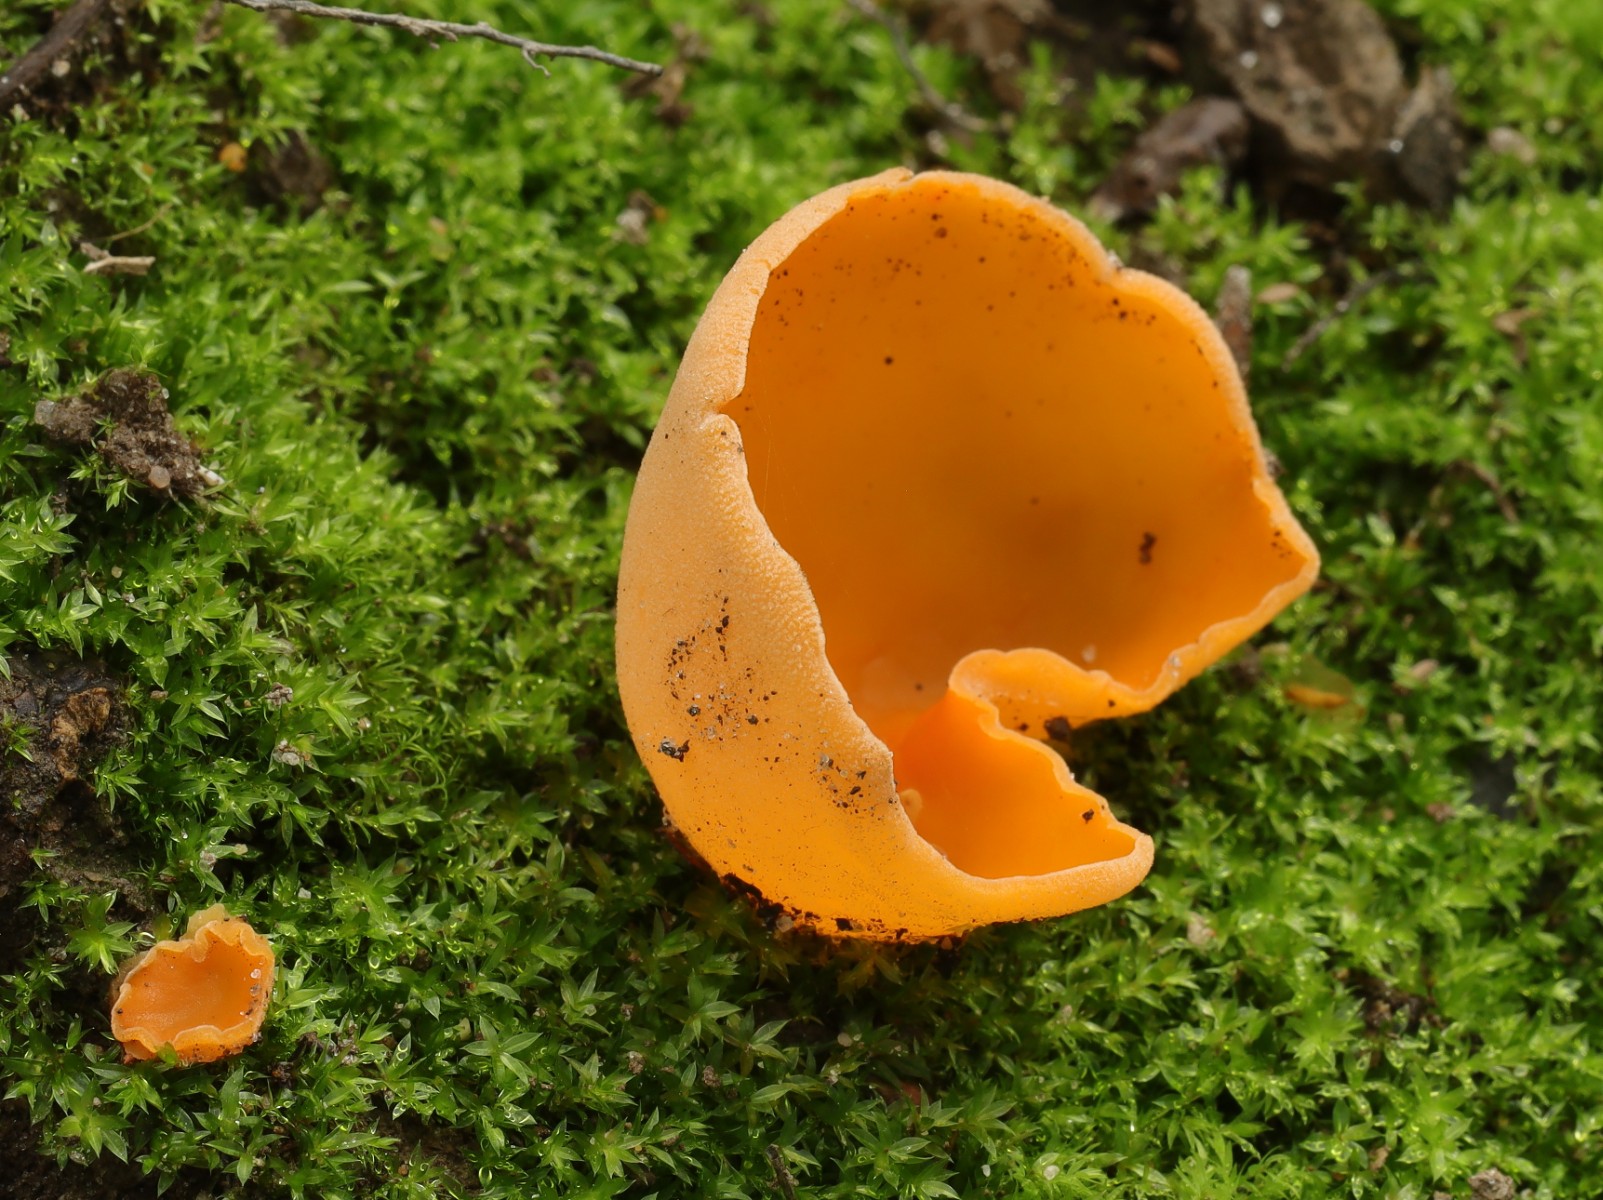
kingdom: Fungi
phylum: Ascomycota
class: Pezizomycetes
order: Pezizales
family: Pyronemataceae
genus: Aleuria
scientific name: Aleuria aurantia
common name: almindelig orangebæger
